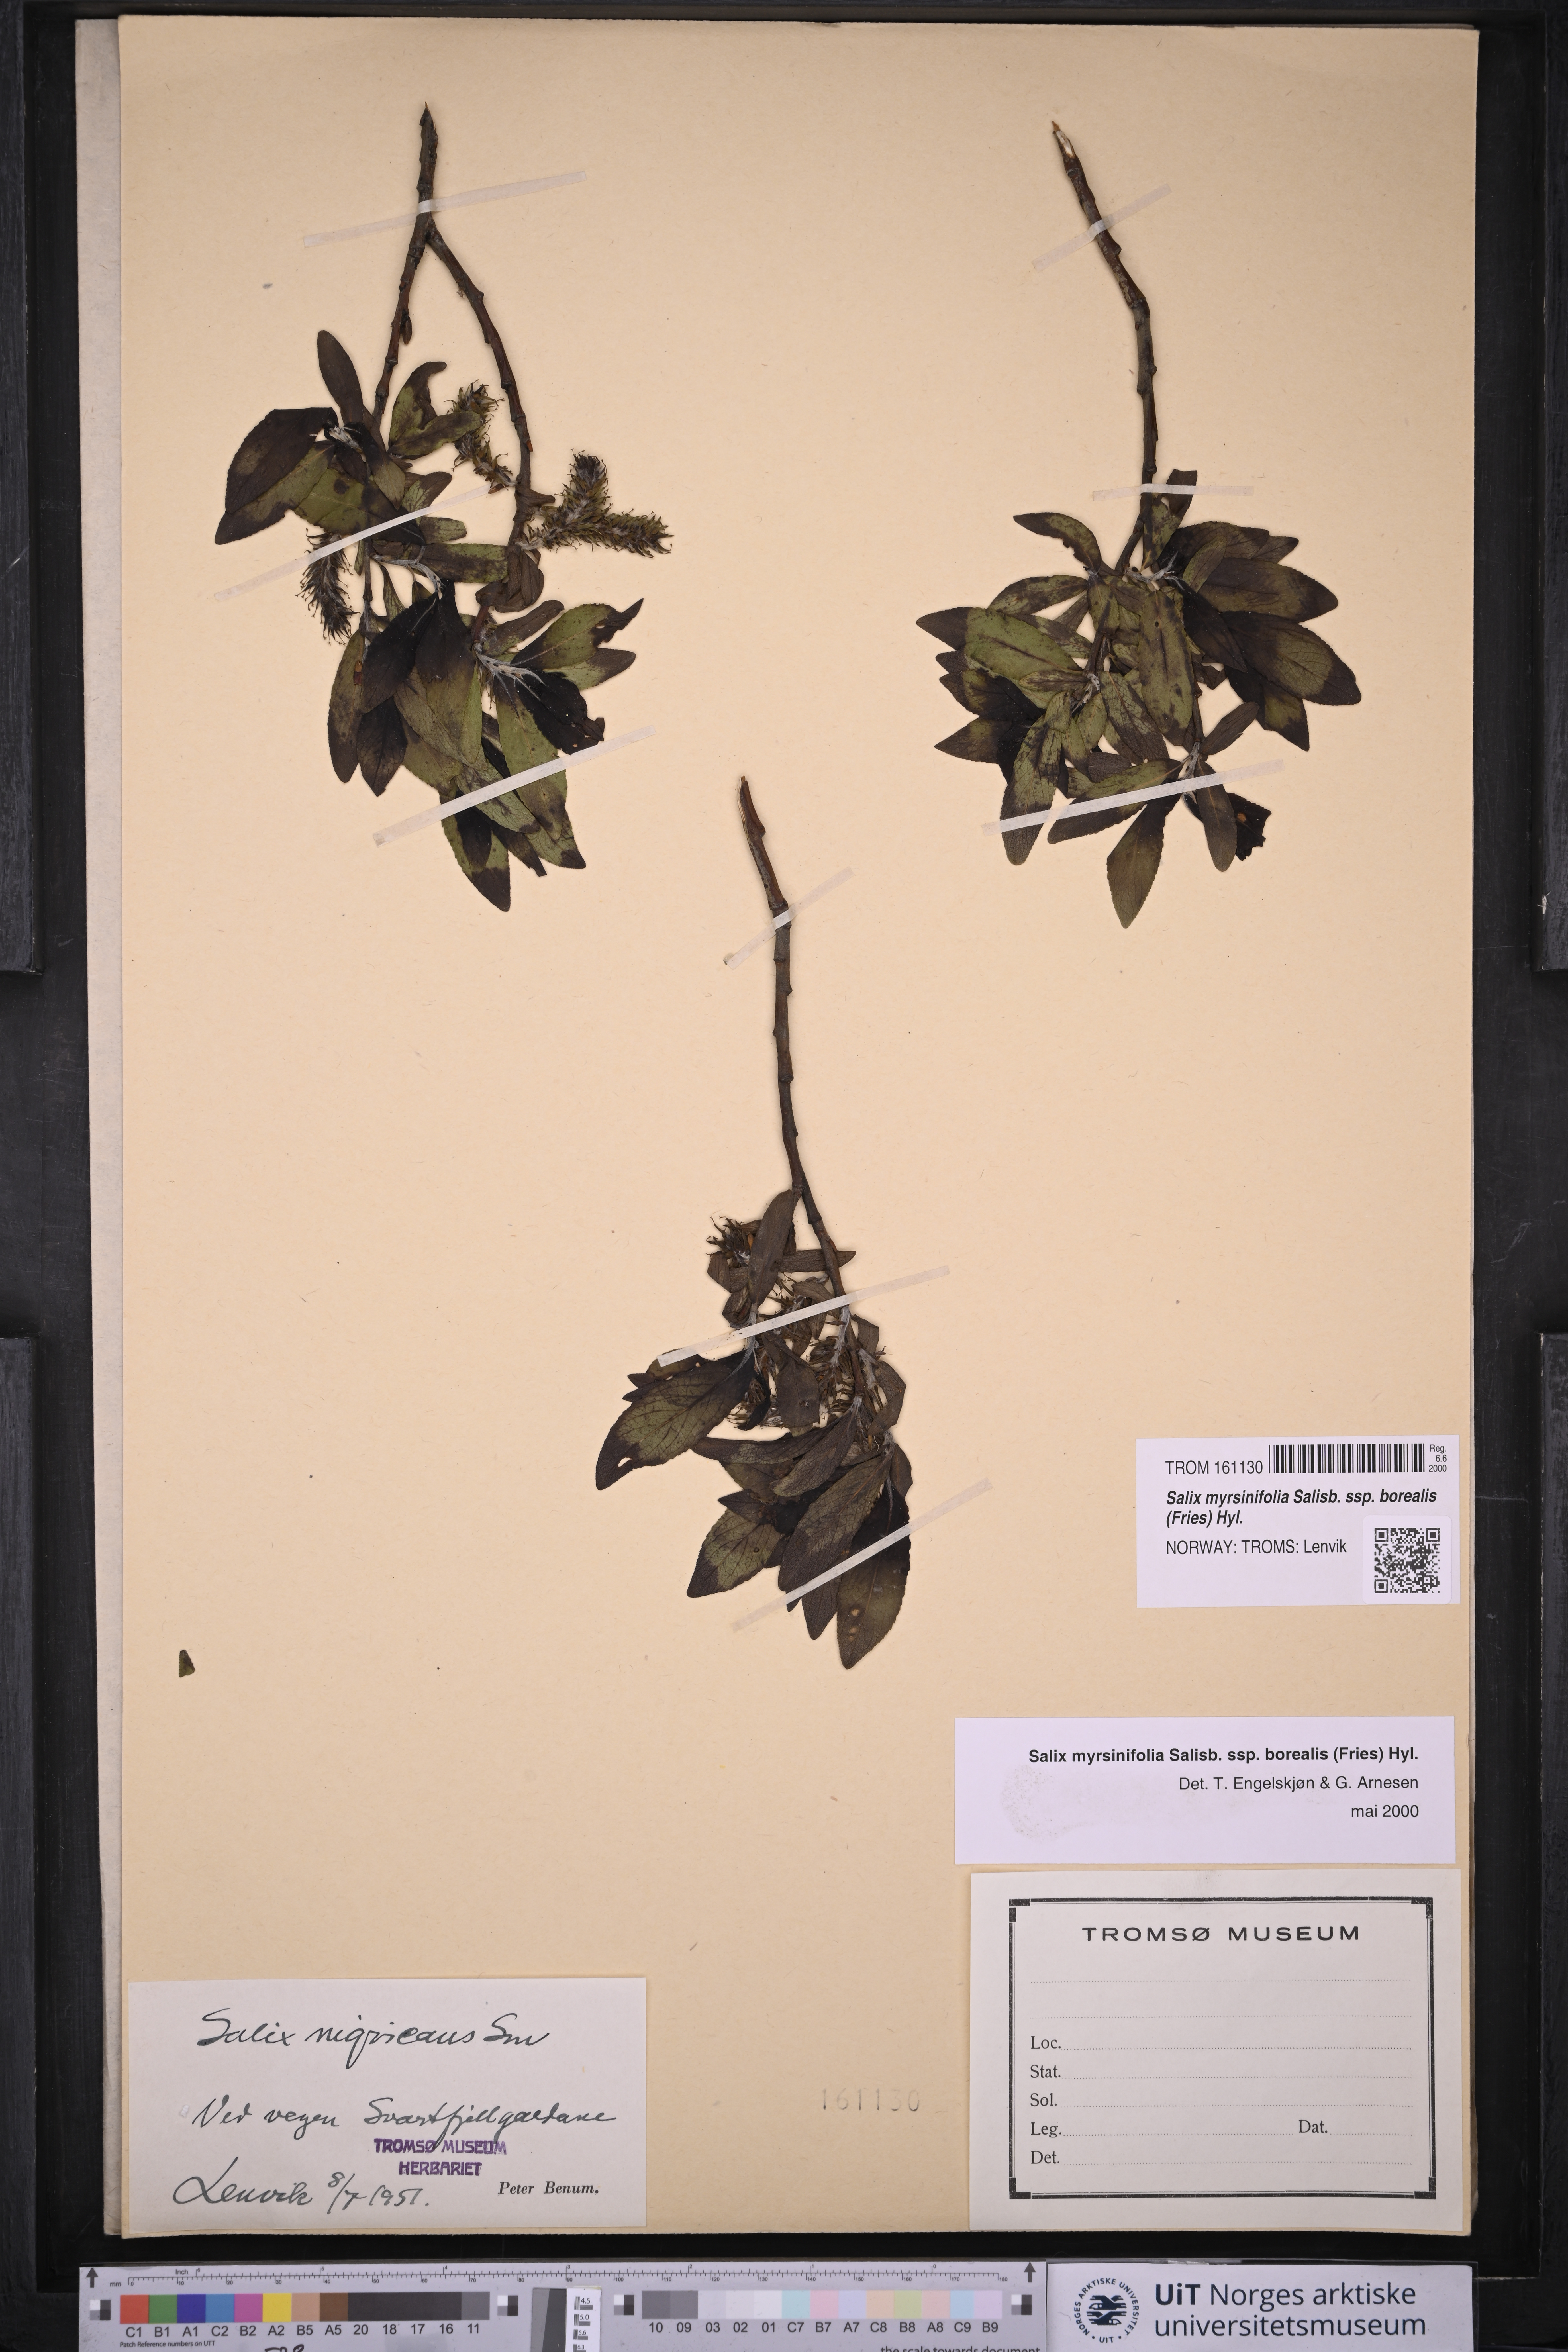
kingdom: Plantae
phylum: Tracheophyta
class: Magnoliopsida
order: Malpighiales
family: Salicaceae
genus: Salix
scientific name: Salix myrsinifolia
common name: Dark-leaved willow
